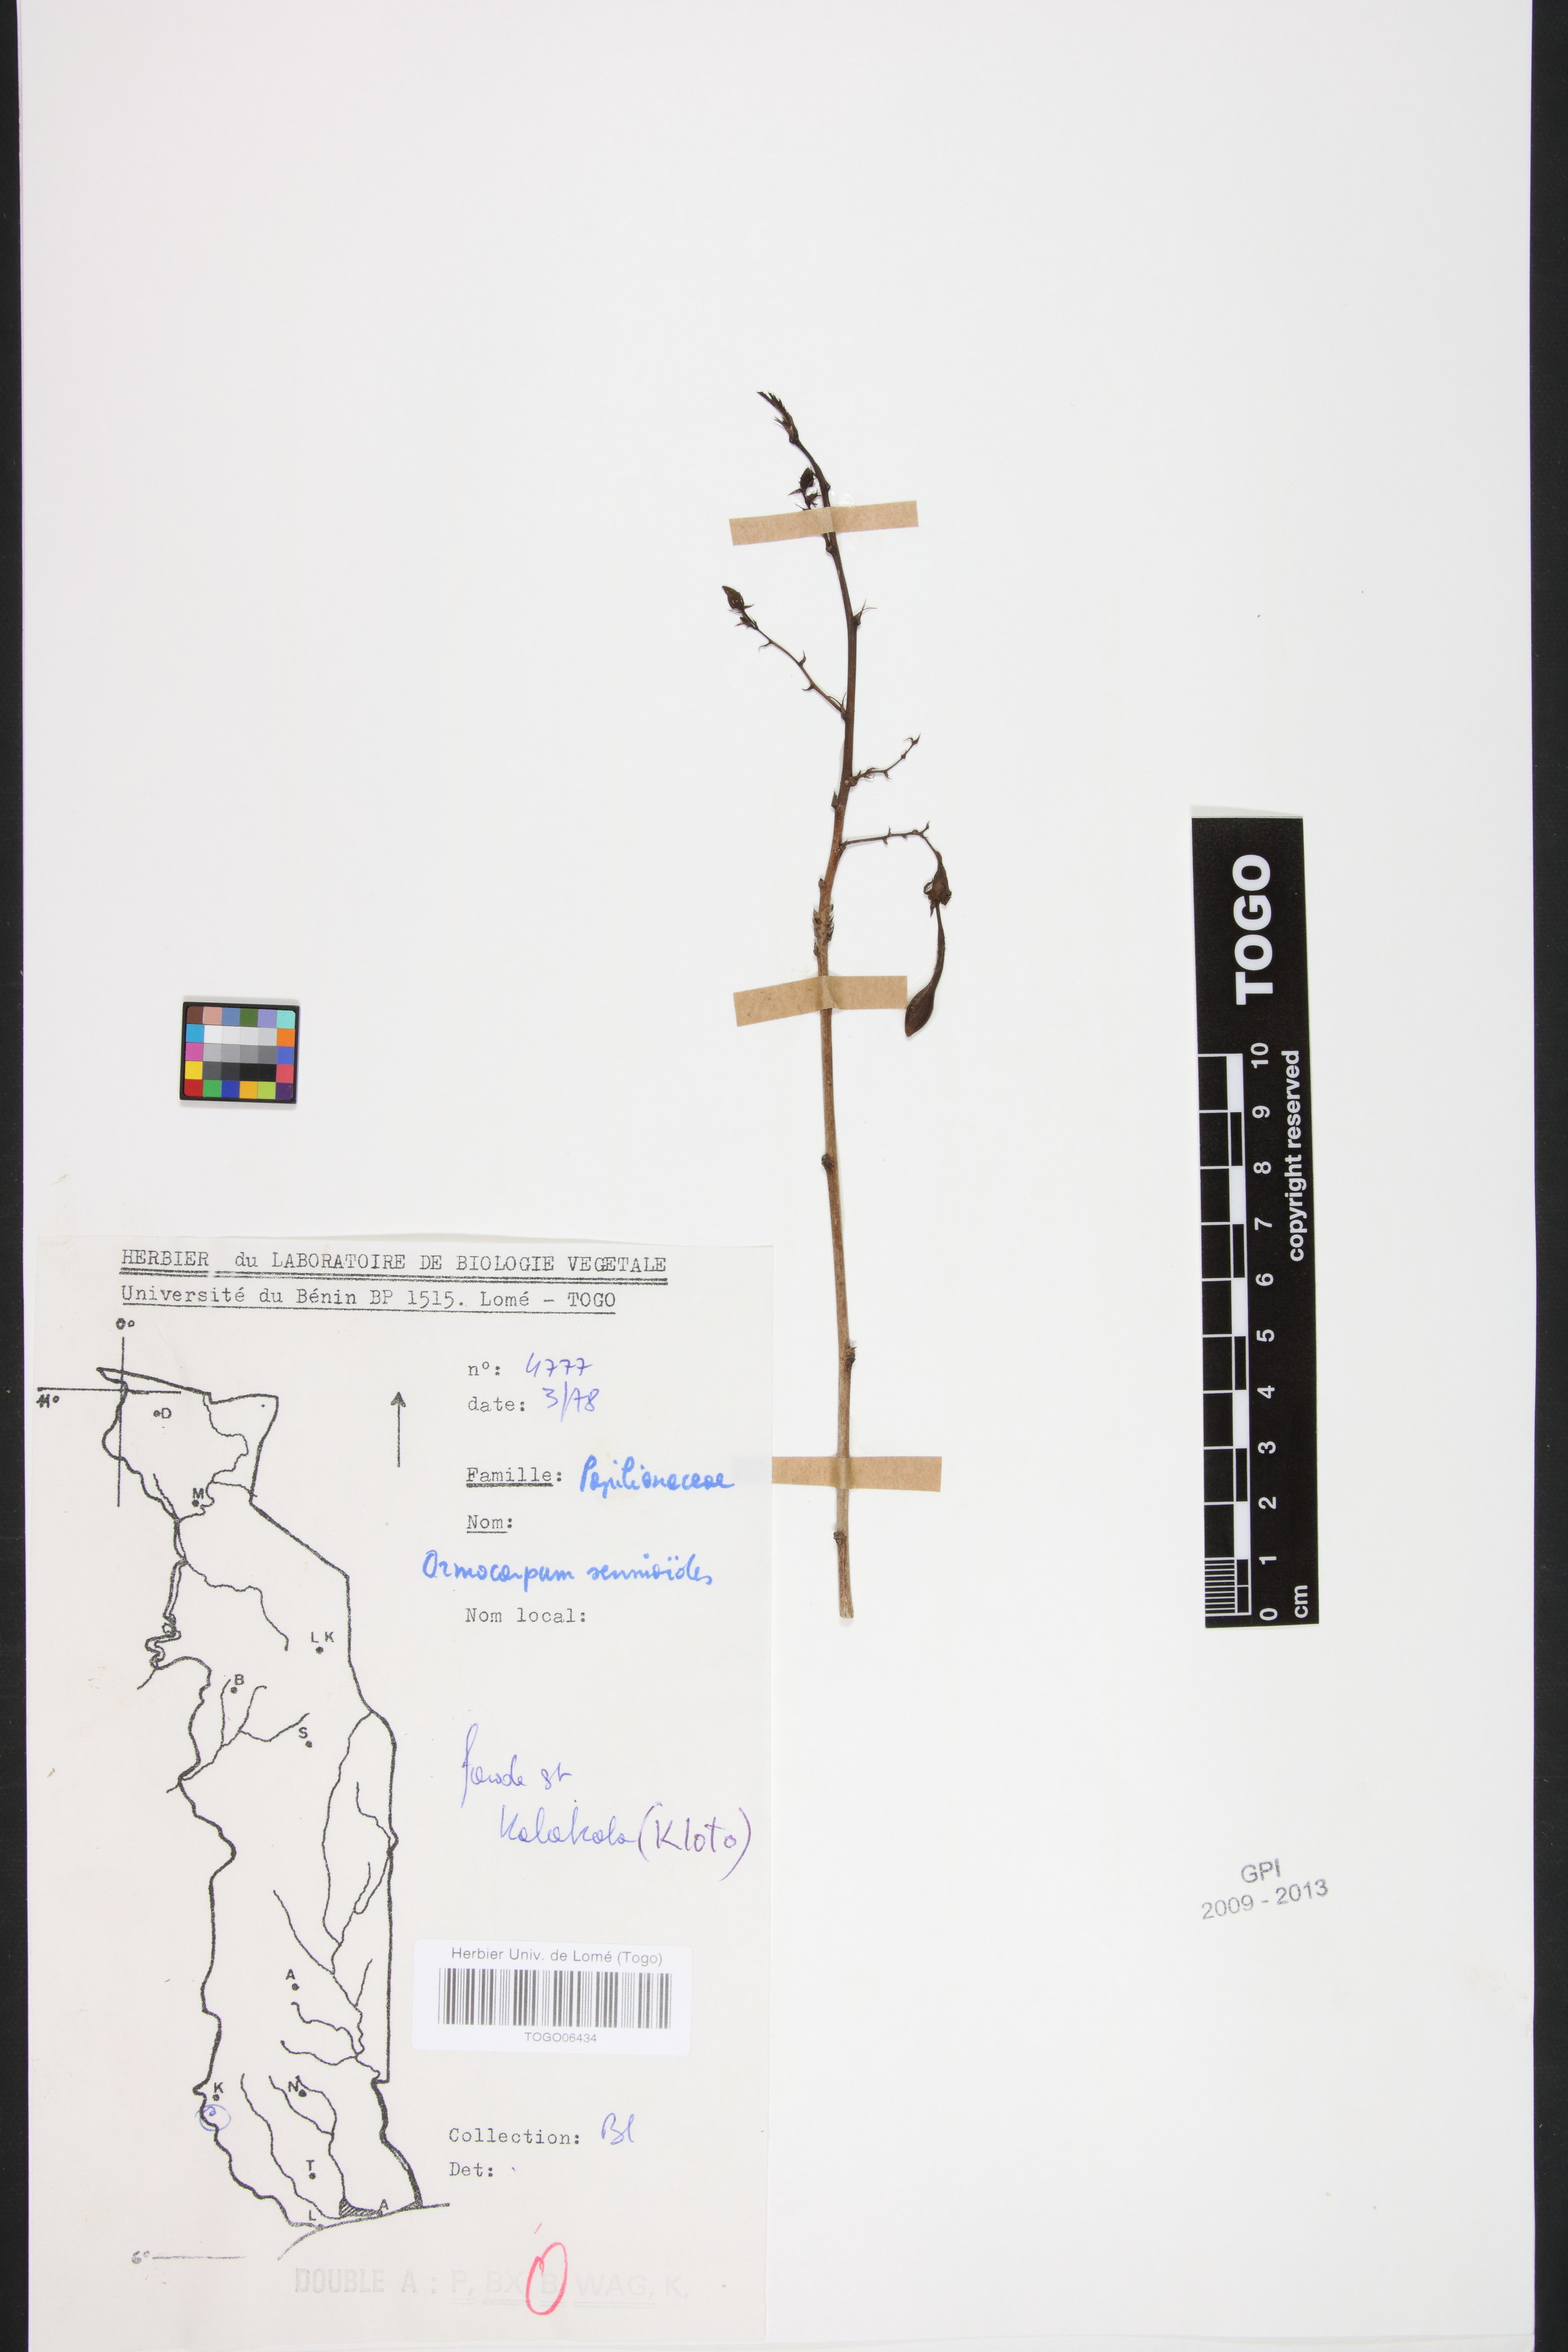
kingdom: Plantae
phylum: Tracheophyta
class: Magnoliopsida
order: Fabales
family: Fabaceae
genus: Ormocarpum
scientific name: Ormocarpum sennoides
